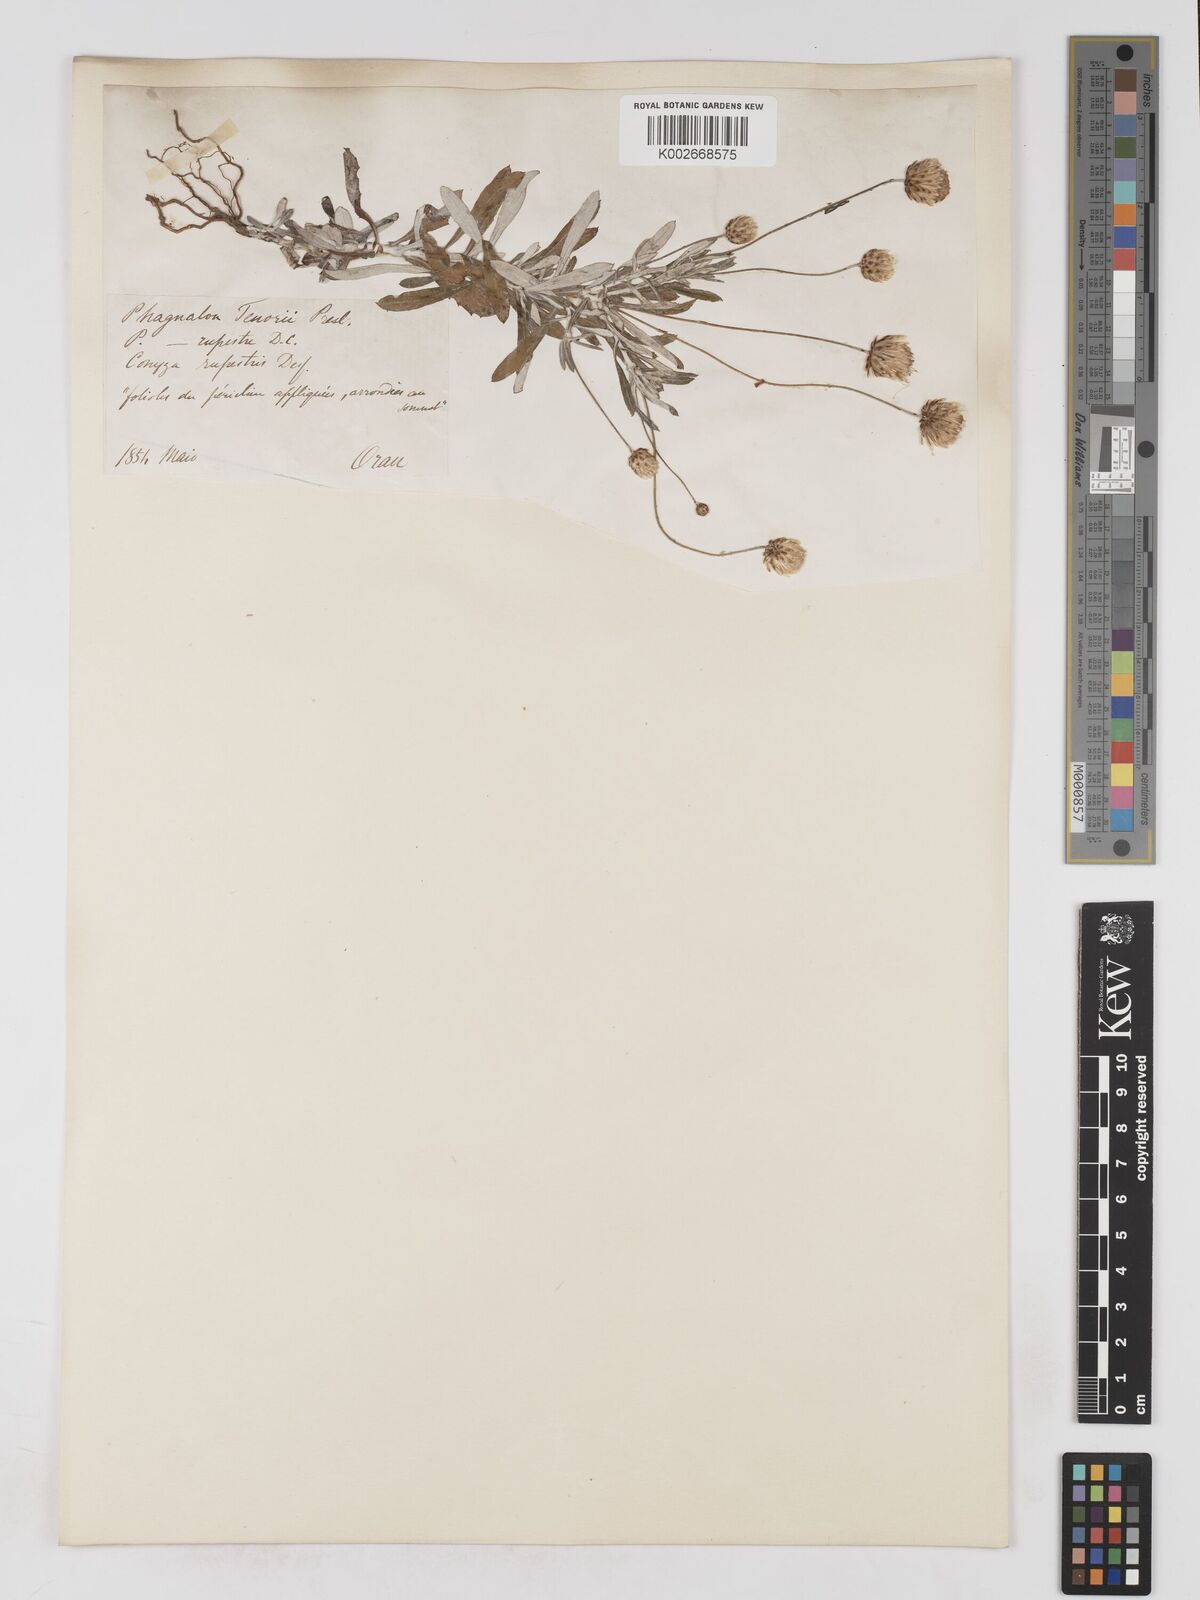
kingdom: Plantae
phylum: Tracheophyta
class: Magnoliopsida
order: Asterales
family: Asteraceae
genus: Phagnalon
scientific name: Phagnalon rupestre
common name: Rock phagnalon
